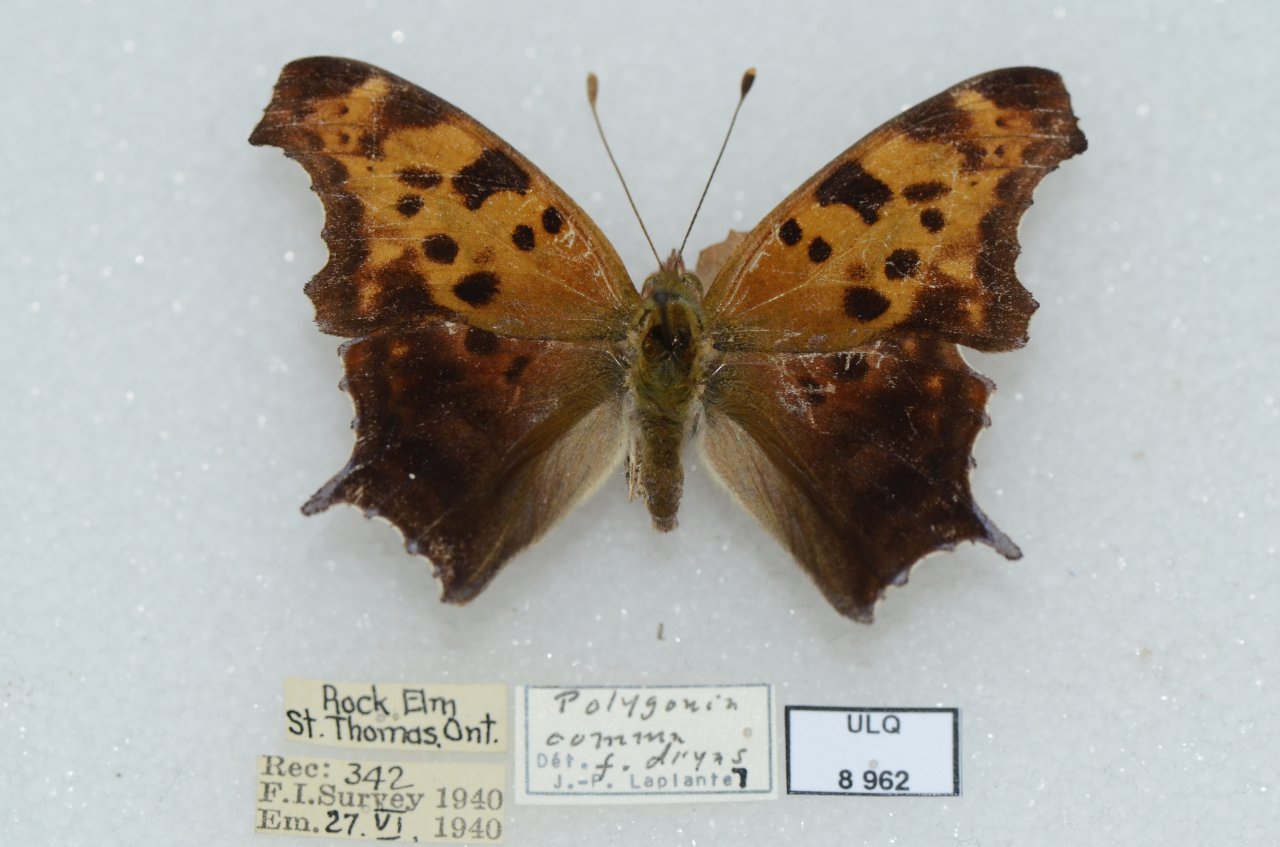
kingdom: Animalia
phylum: Arthropoda
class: Insecta
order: Lepidoptera
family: Nymphalidae
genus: Polygonia
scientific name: Polygonia interrogationis
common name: Question Mark
